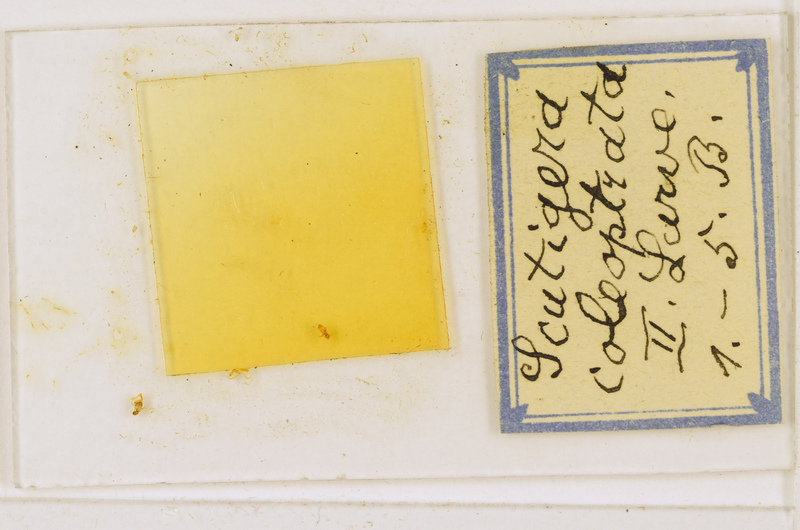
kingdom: Animalia
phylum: Arthropoda
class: Chilopoda
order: Scutigeromorpha
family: Scutigeridae
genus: Scutigera
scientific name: Scutigera coleoptrata
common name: House centipede
